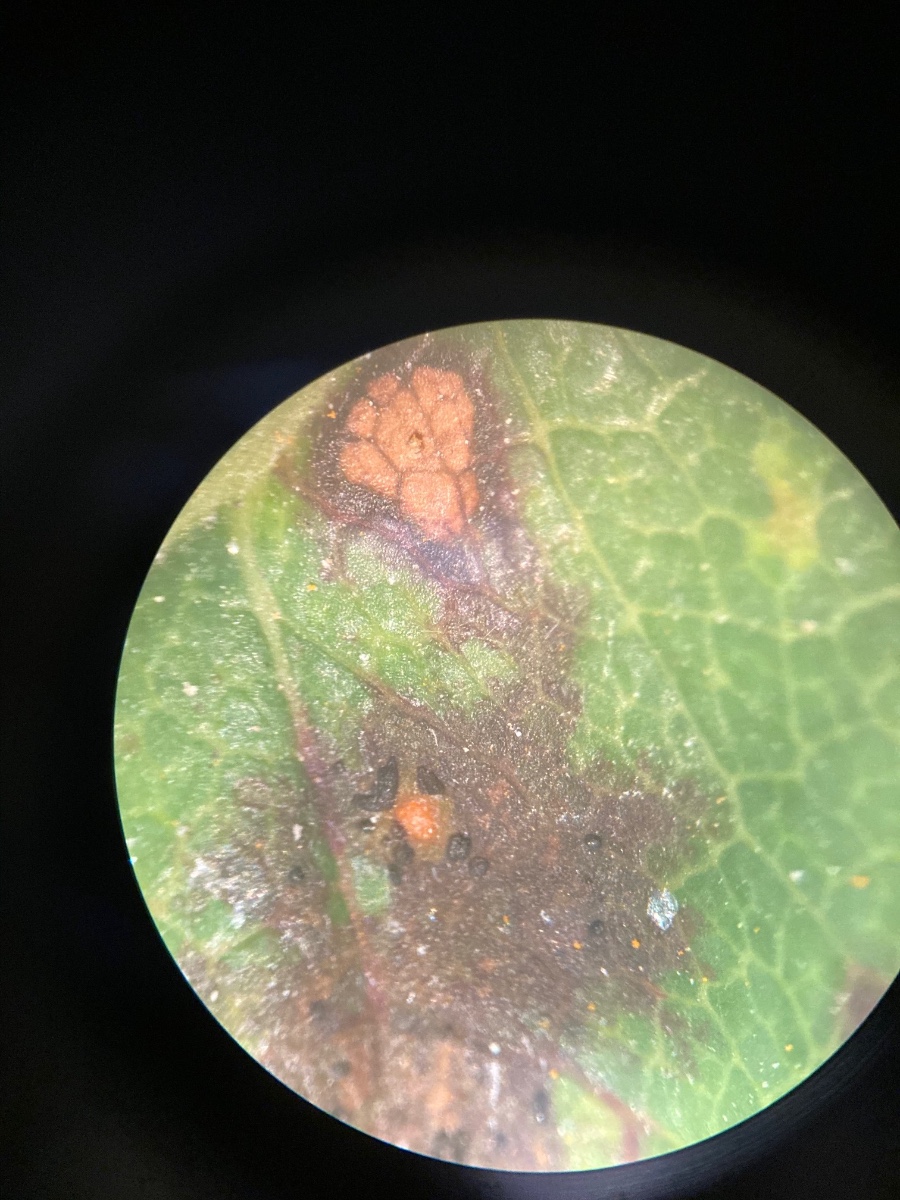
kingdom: Fungi
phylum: Ascomycota
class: Leotiomycetes
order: Helotiales
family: Drepanopezizaceae
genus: Diplocarpon
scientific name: Diplocarpon rosae
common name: Rose black-spot
